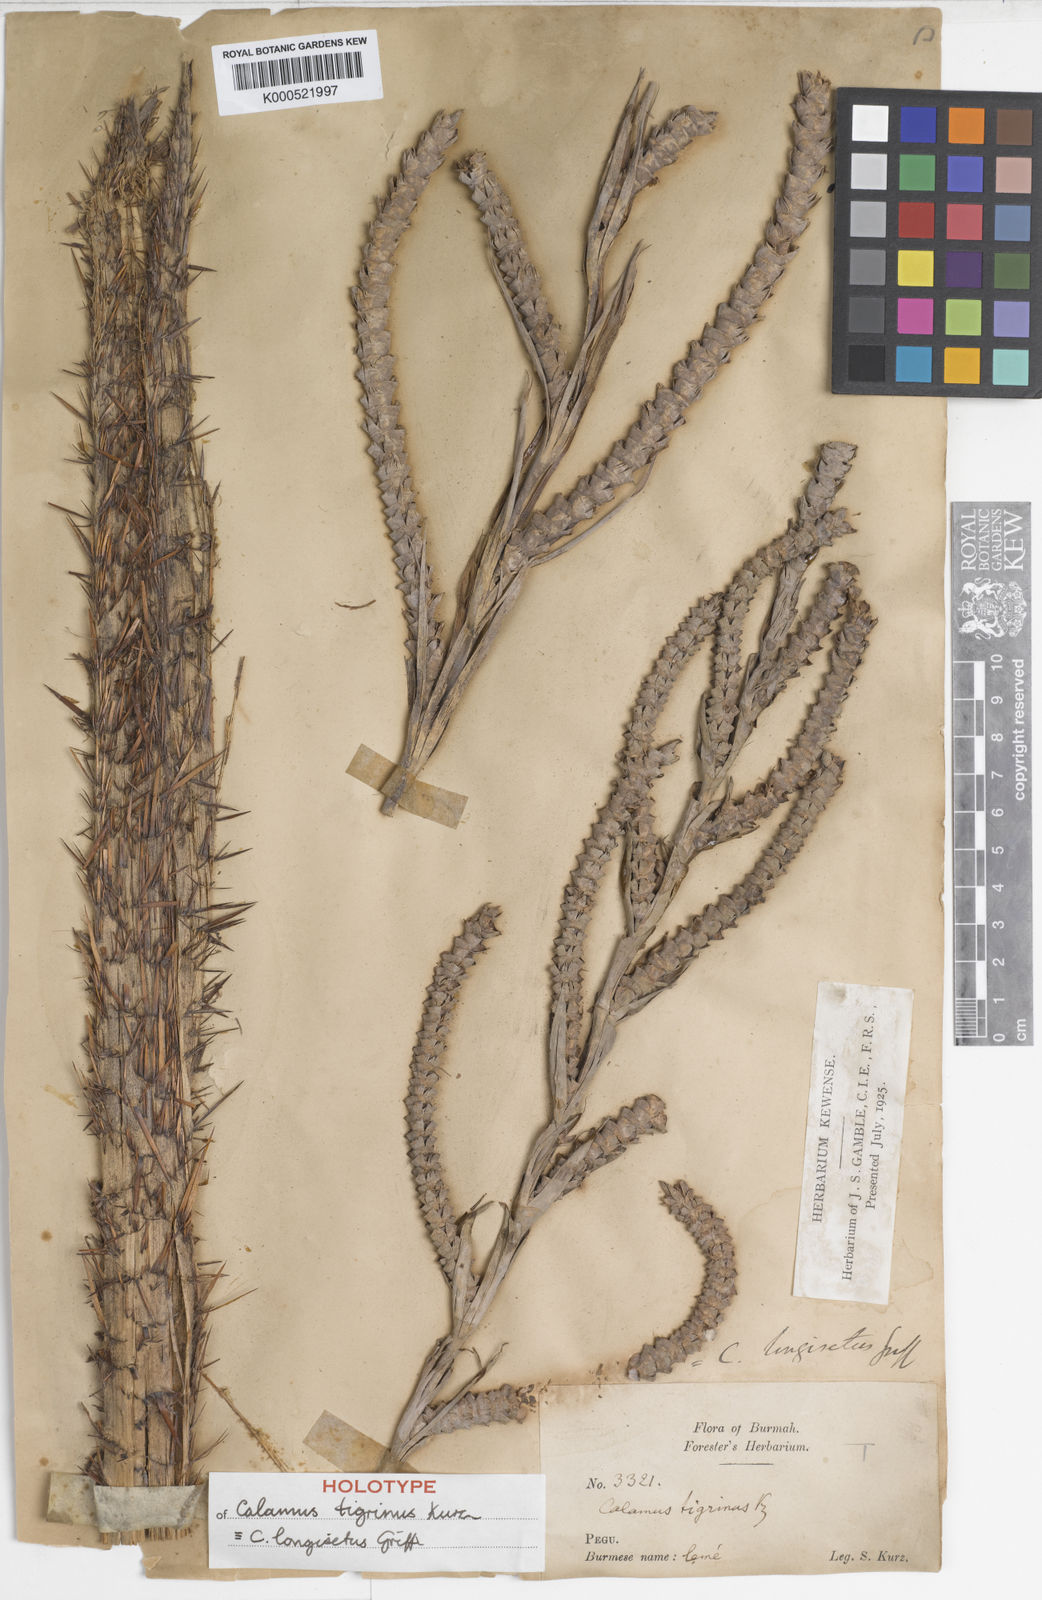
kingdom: Plantae
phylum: Tracheophyta
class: Liliopsida
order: Arecales
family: Arecaceae
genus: Calamus
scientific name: Calamus longisetus
